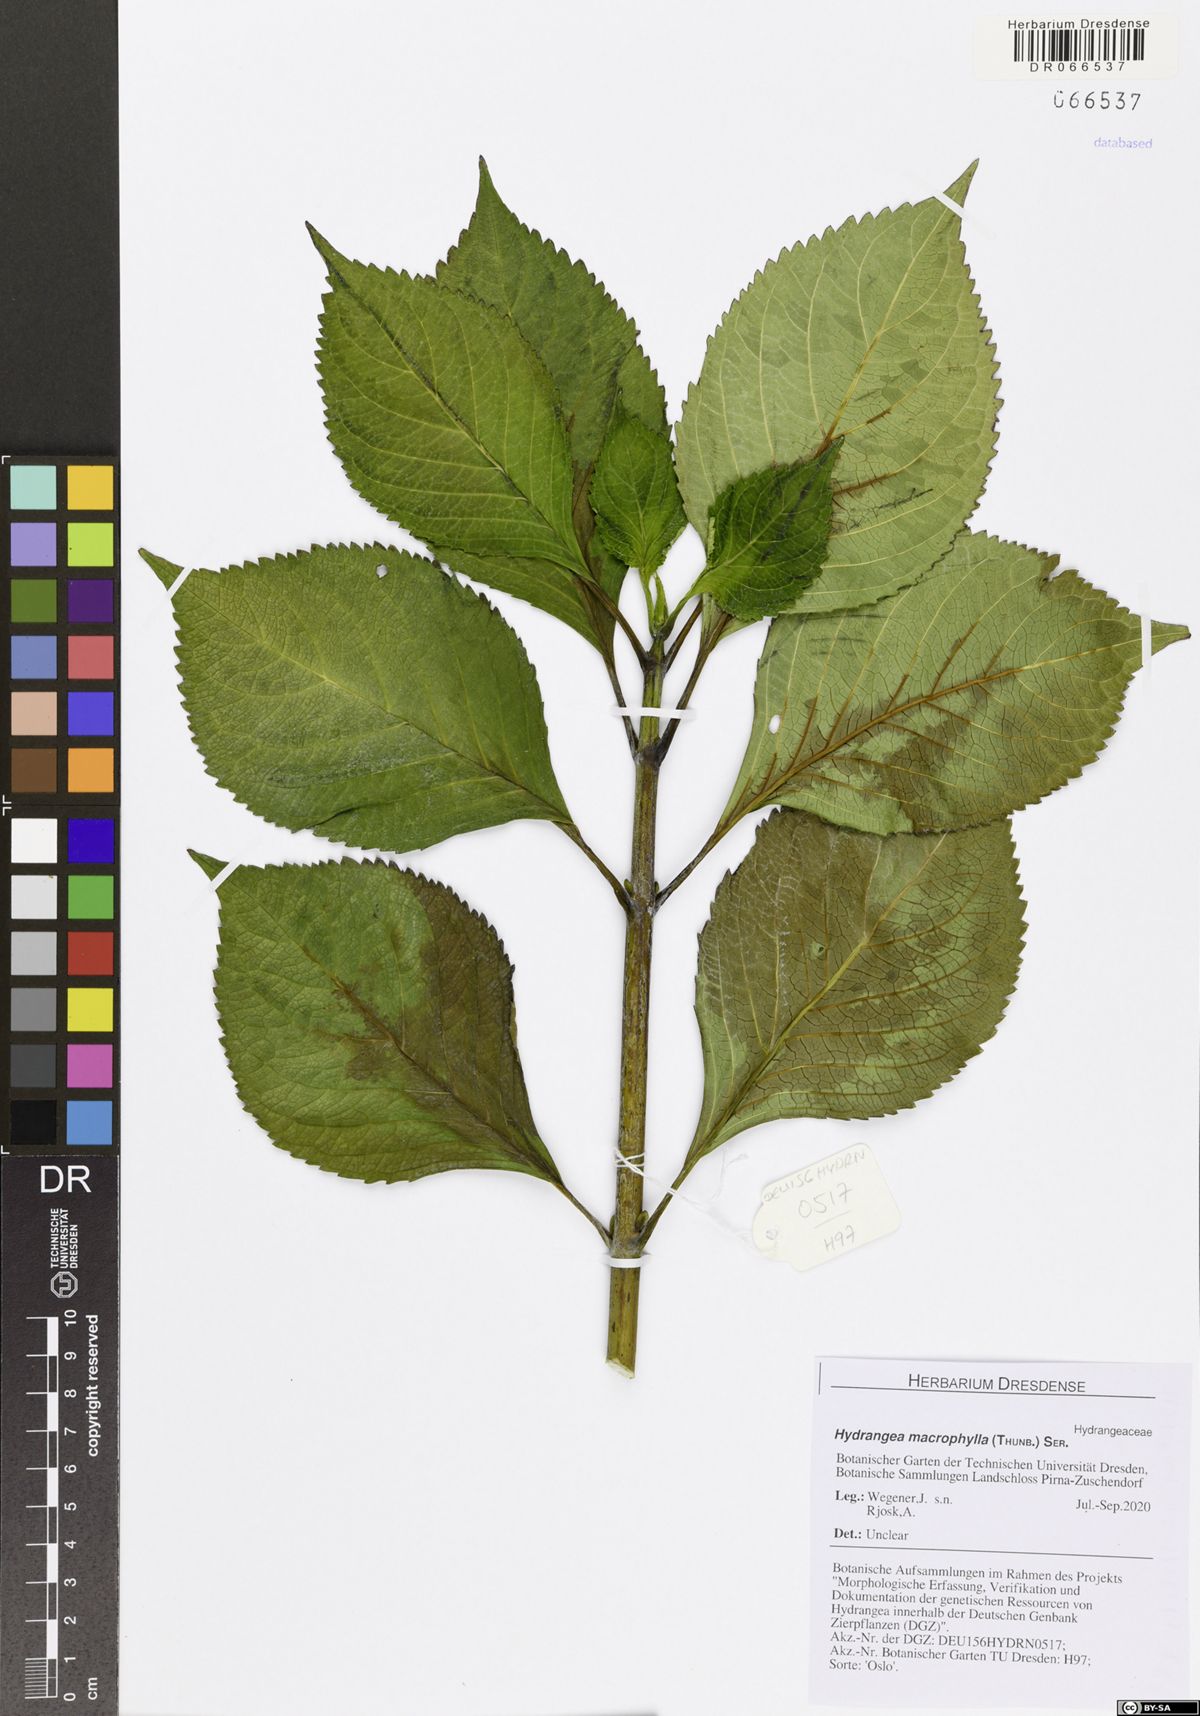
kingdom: Plantae
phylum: Tracheophyta
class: Magnoliopsida
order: Cornales
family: Hydrangeaceae
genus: Hydrangea
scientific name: Hydrangea macrophylla
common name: Hydrangea
